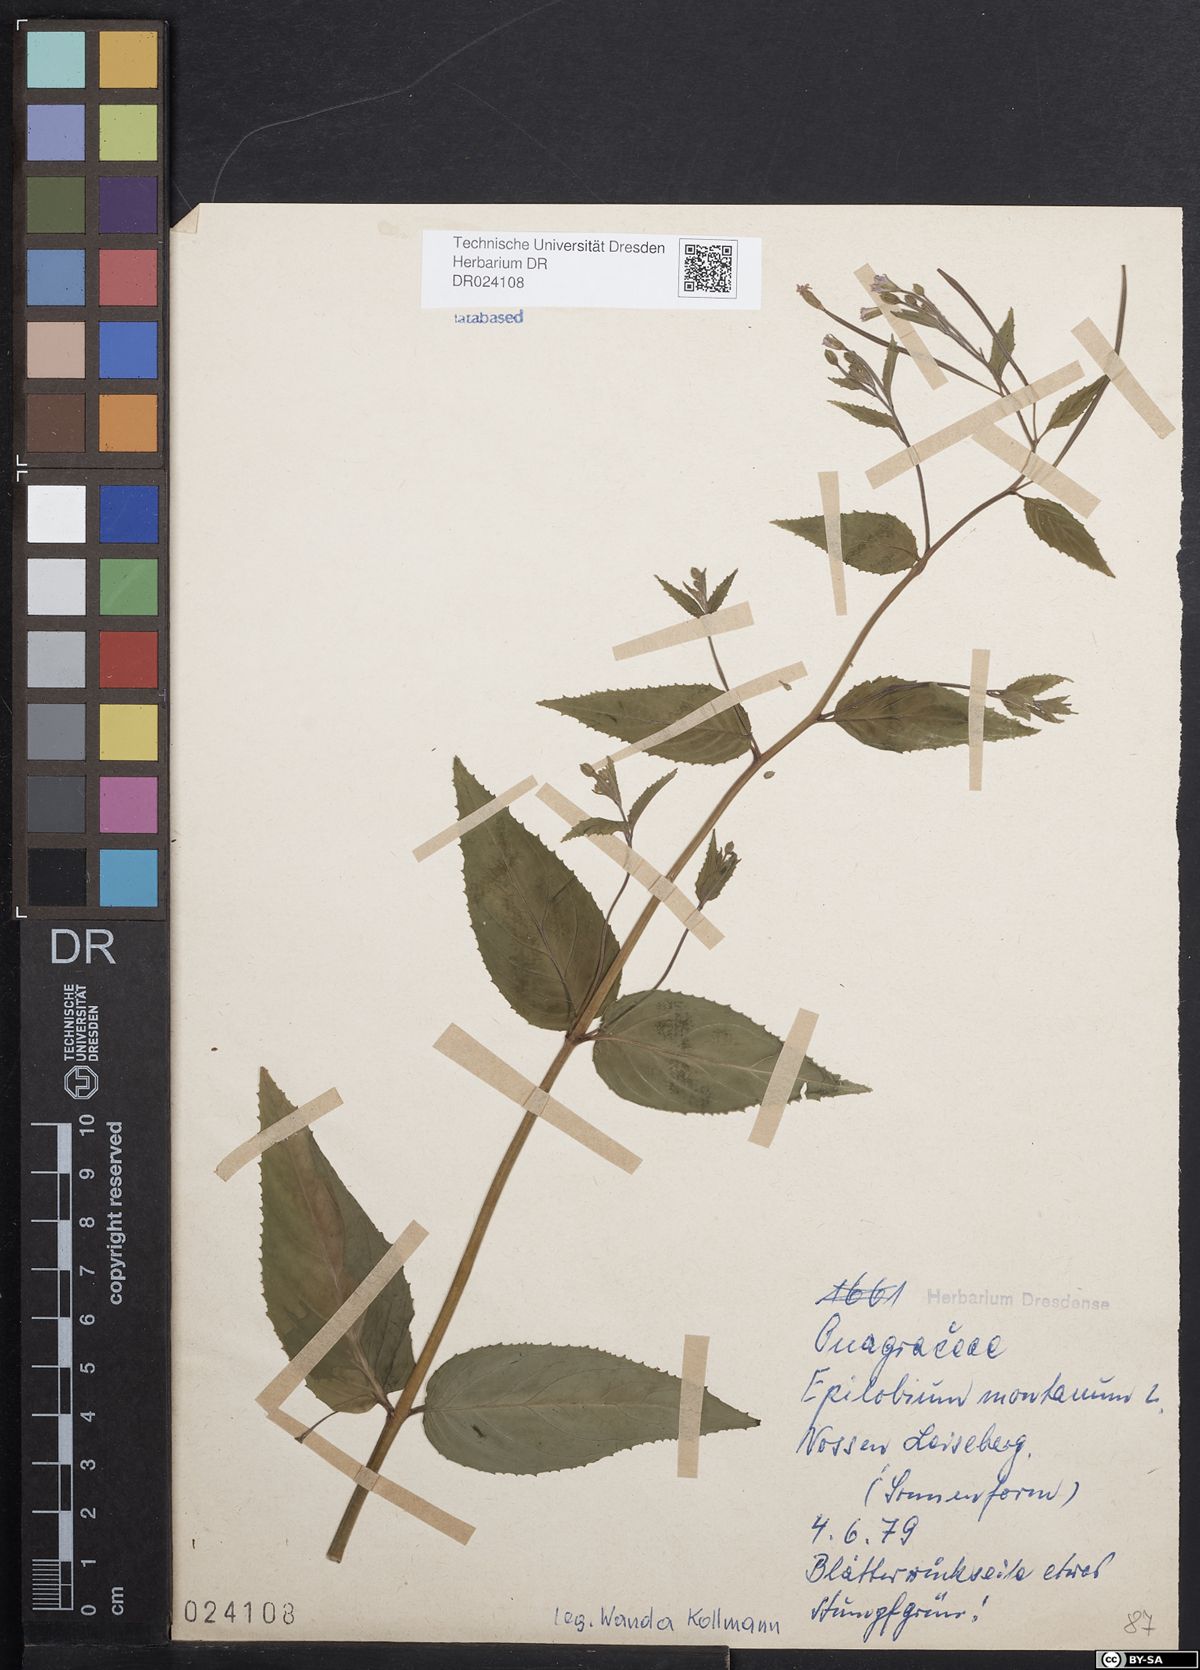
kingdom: Plantae
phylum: Tracheophyta
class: Magnoliopsida
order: Myrtales
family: Onagraceae
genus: Epilobium
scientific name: Epilobium montanum
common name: Broad-leaved willowherb
